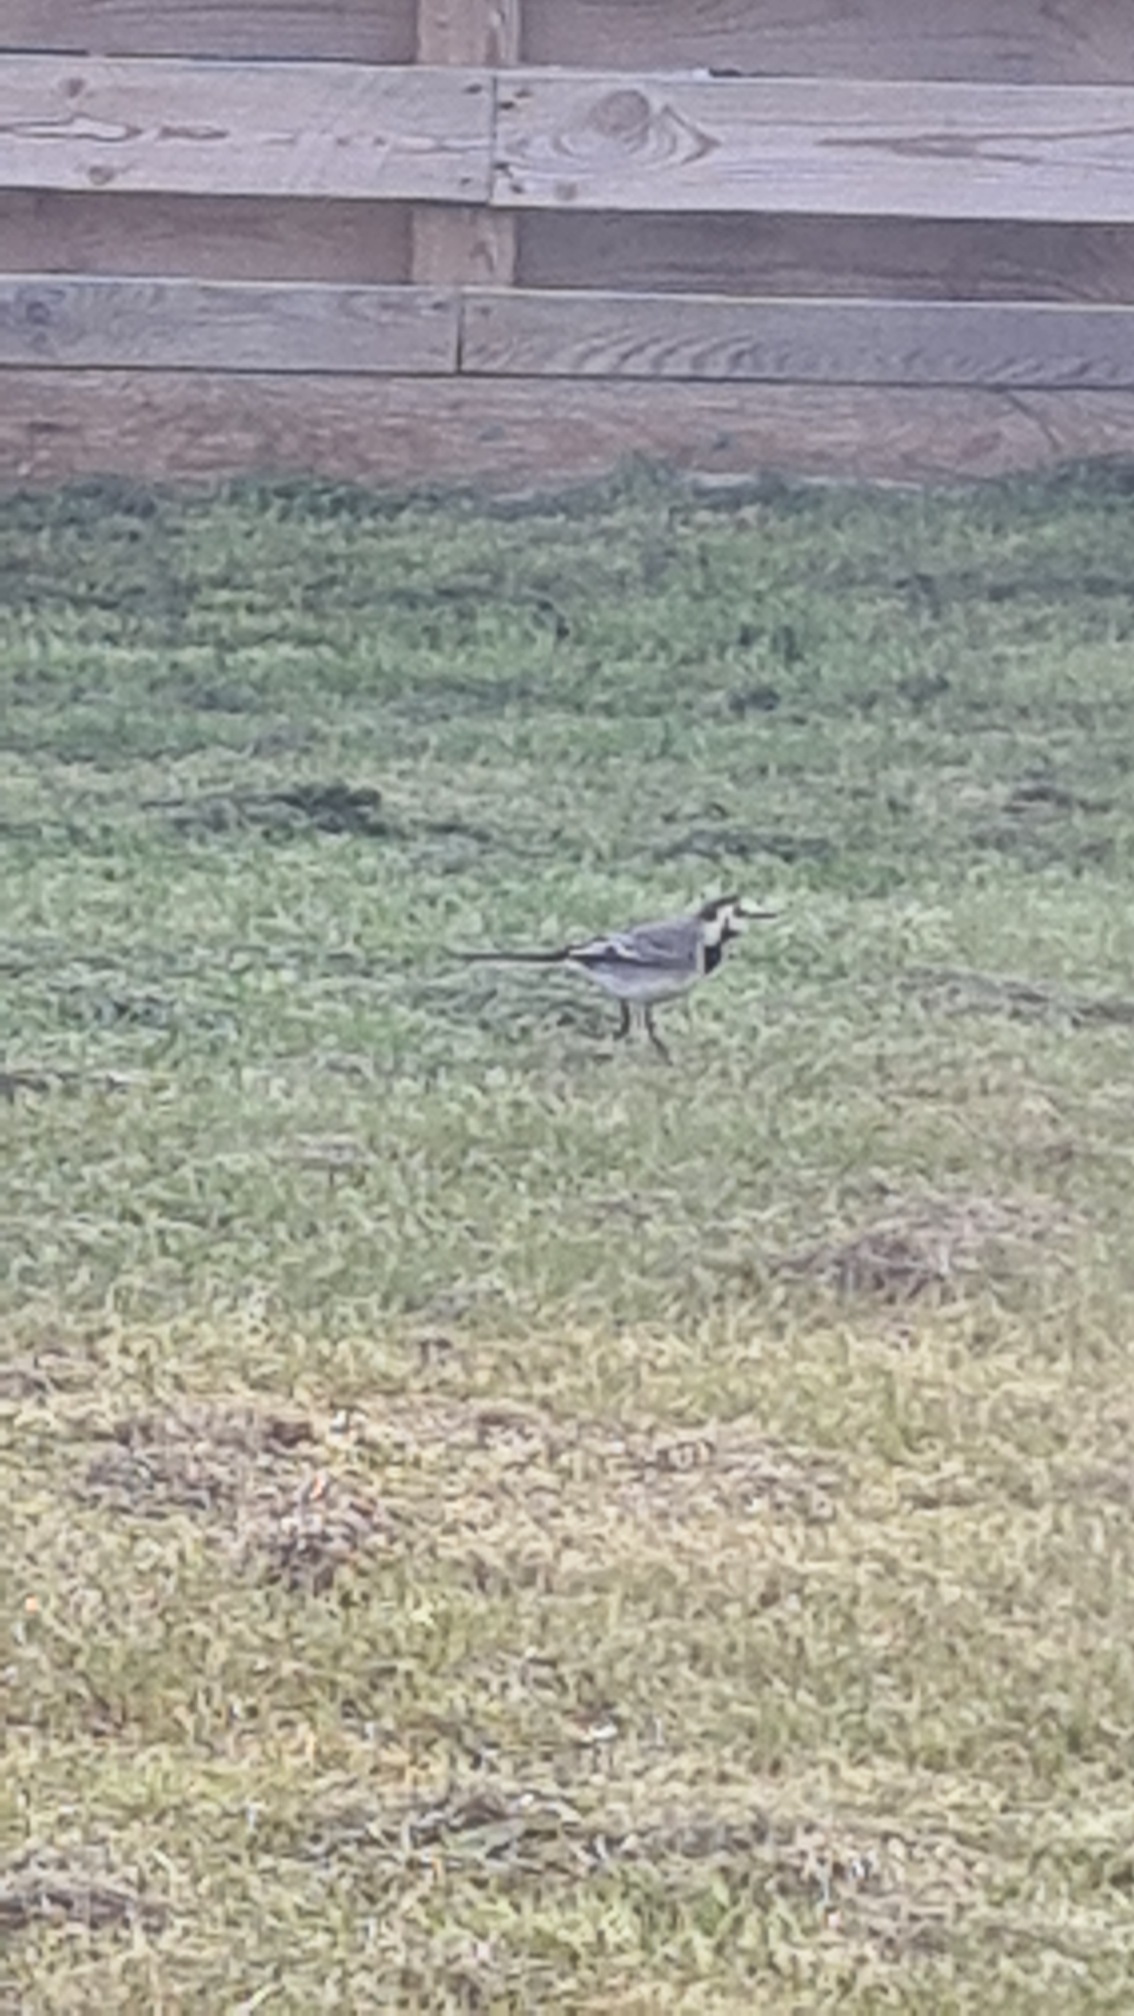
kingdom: Animalia
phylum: Chordata
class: Aves
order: Passeriformes
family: Motacillidae
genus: Motacilla
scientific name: Motacilla alba
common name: Hvid vipstjert
